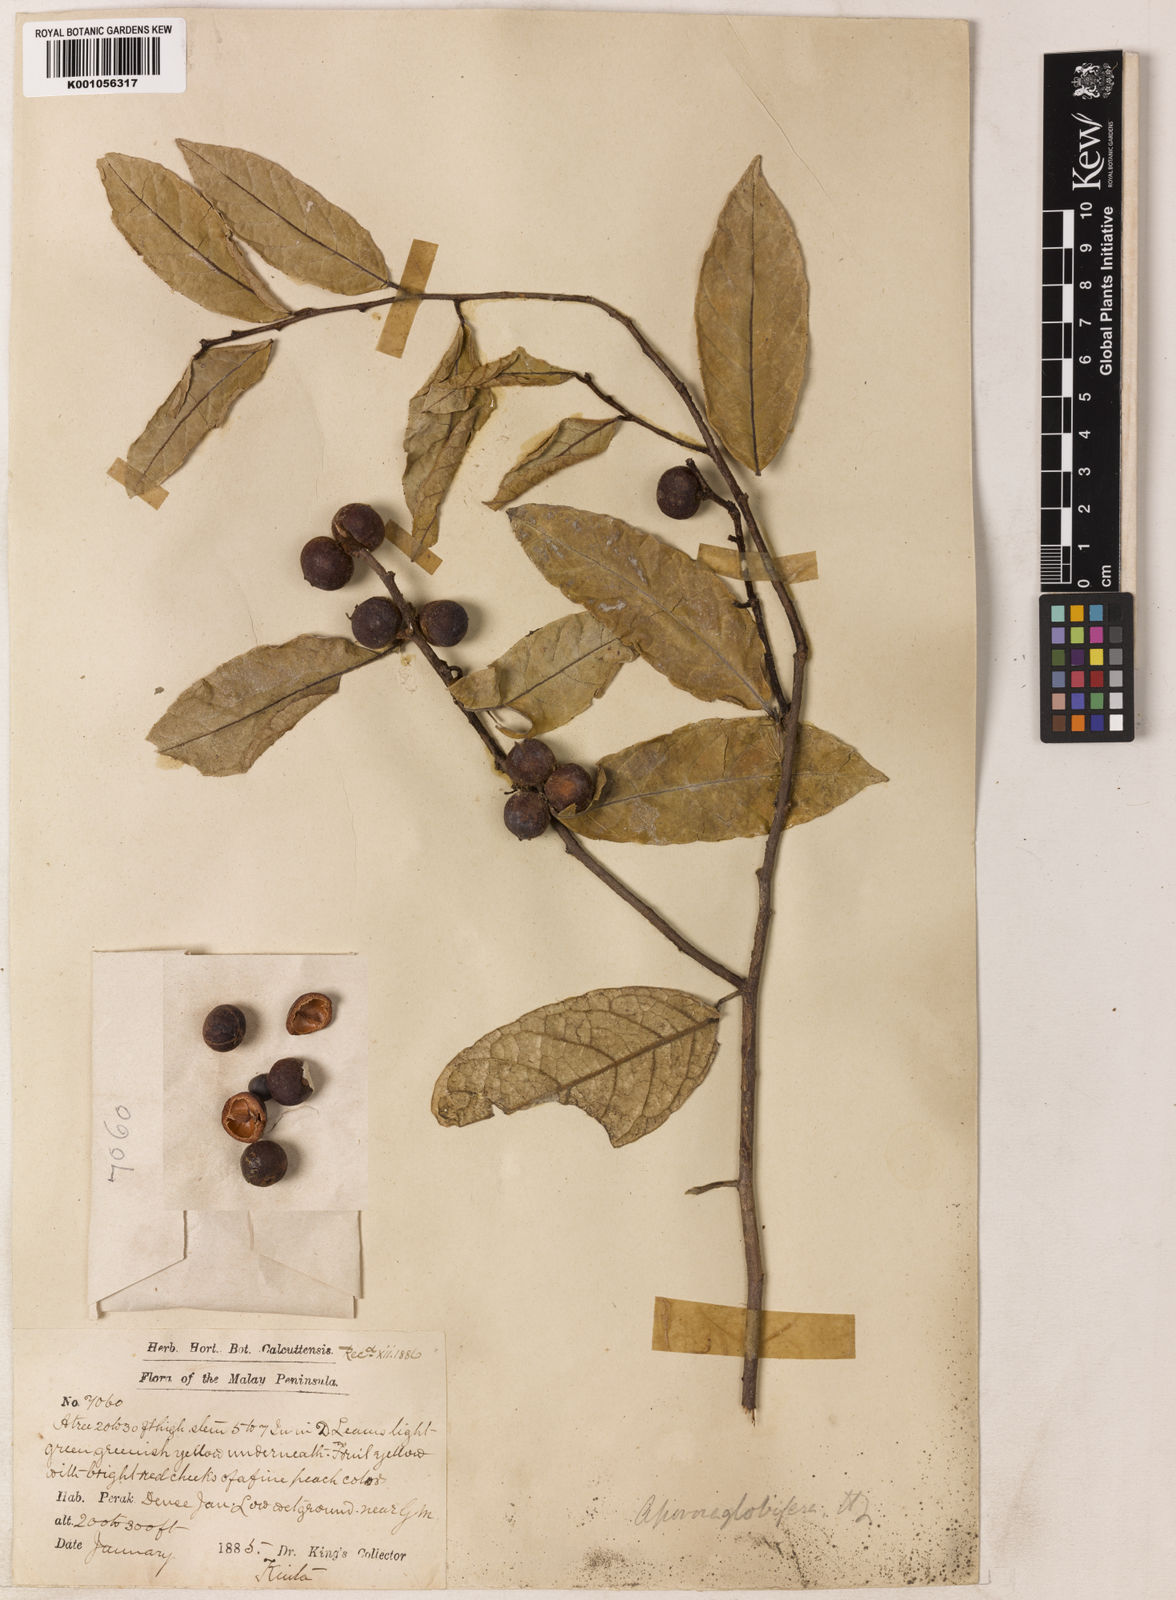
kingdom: Plantae
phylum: Tracheophyta
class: Magnoliopsida
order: Malpighiales
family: Phyllanthaceae
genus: Aporosa
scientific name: Aporosa globifera
